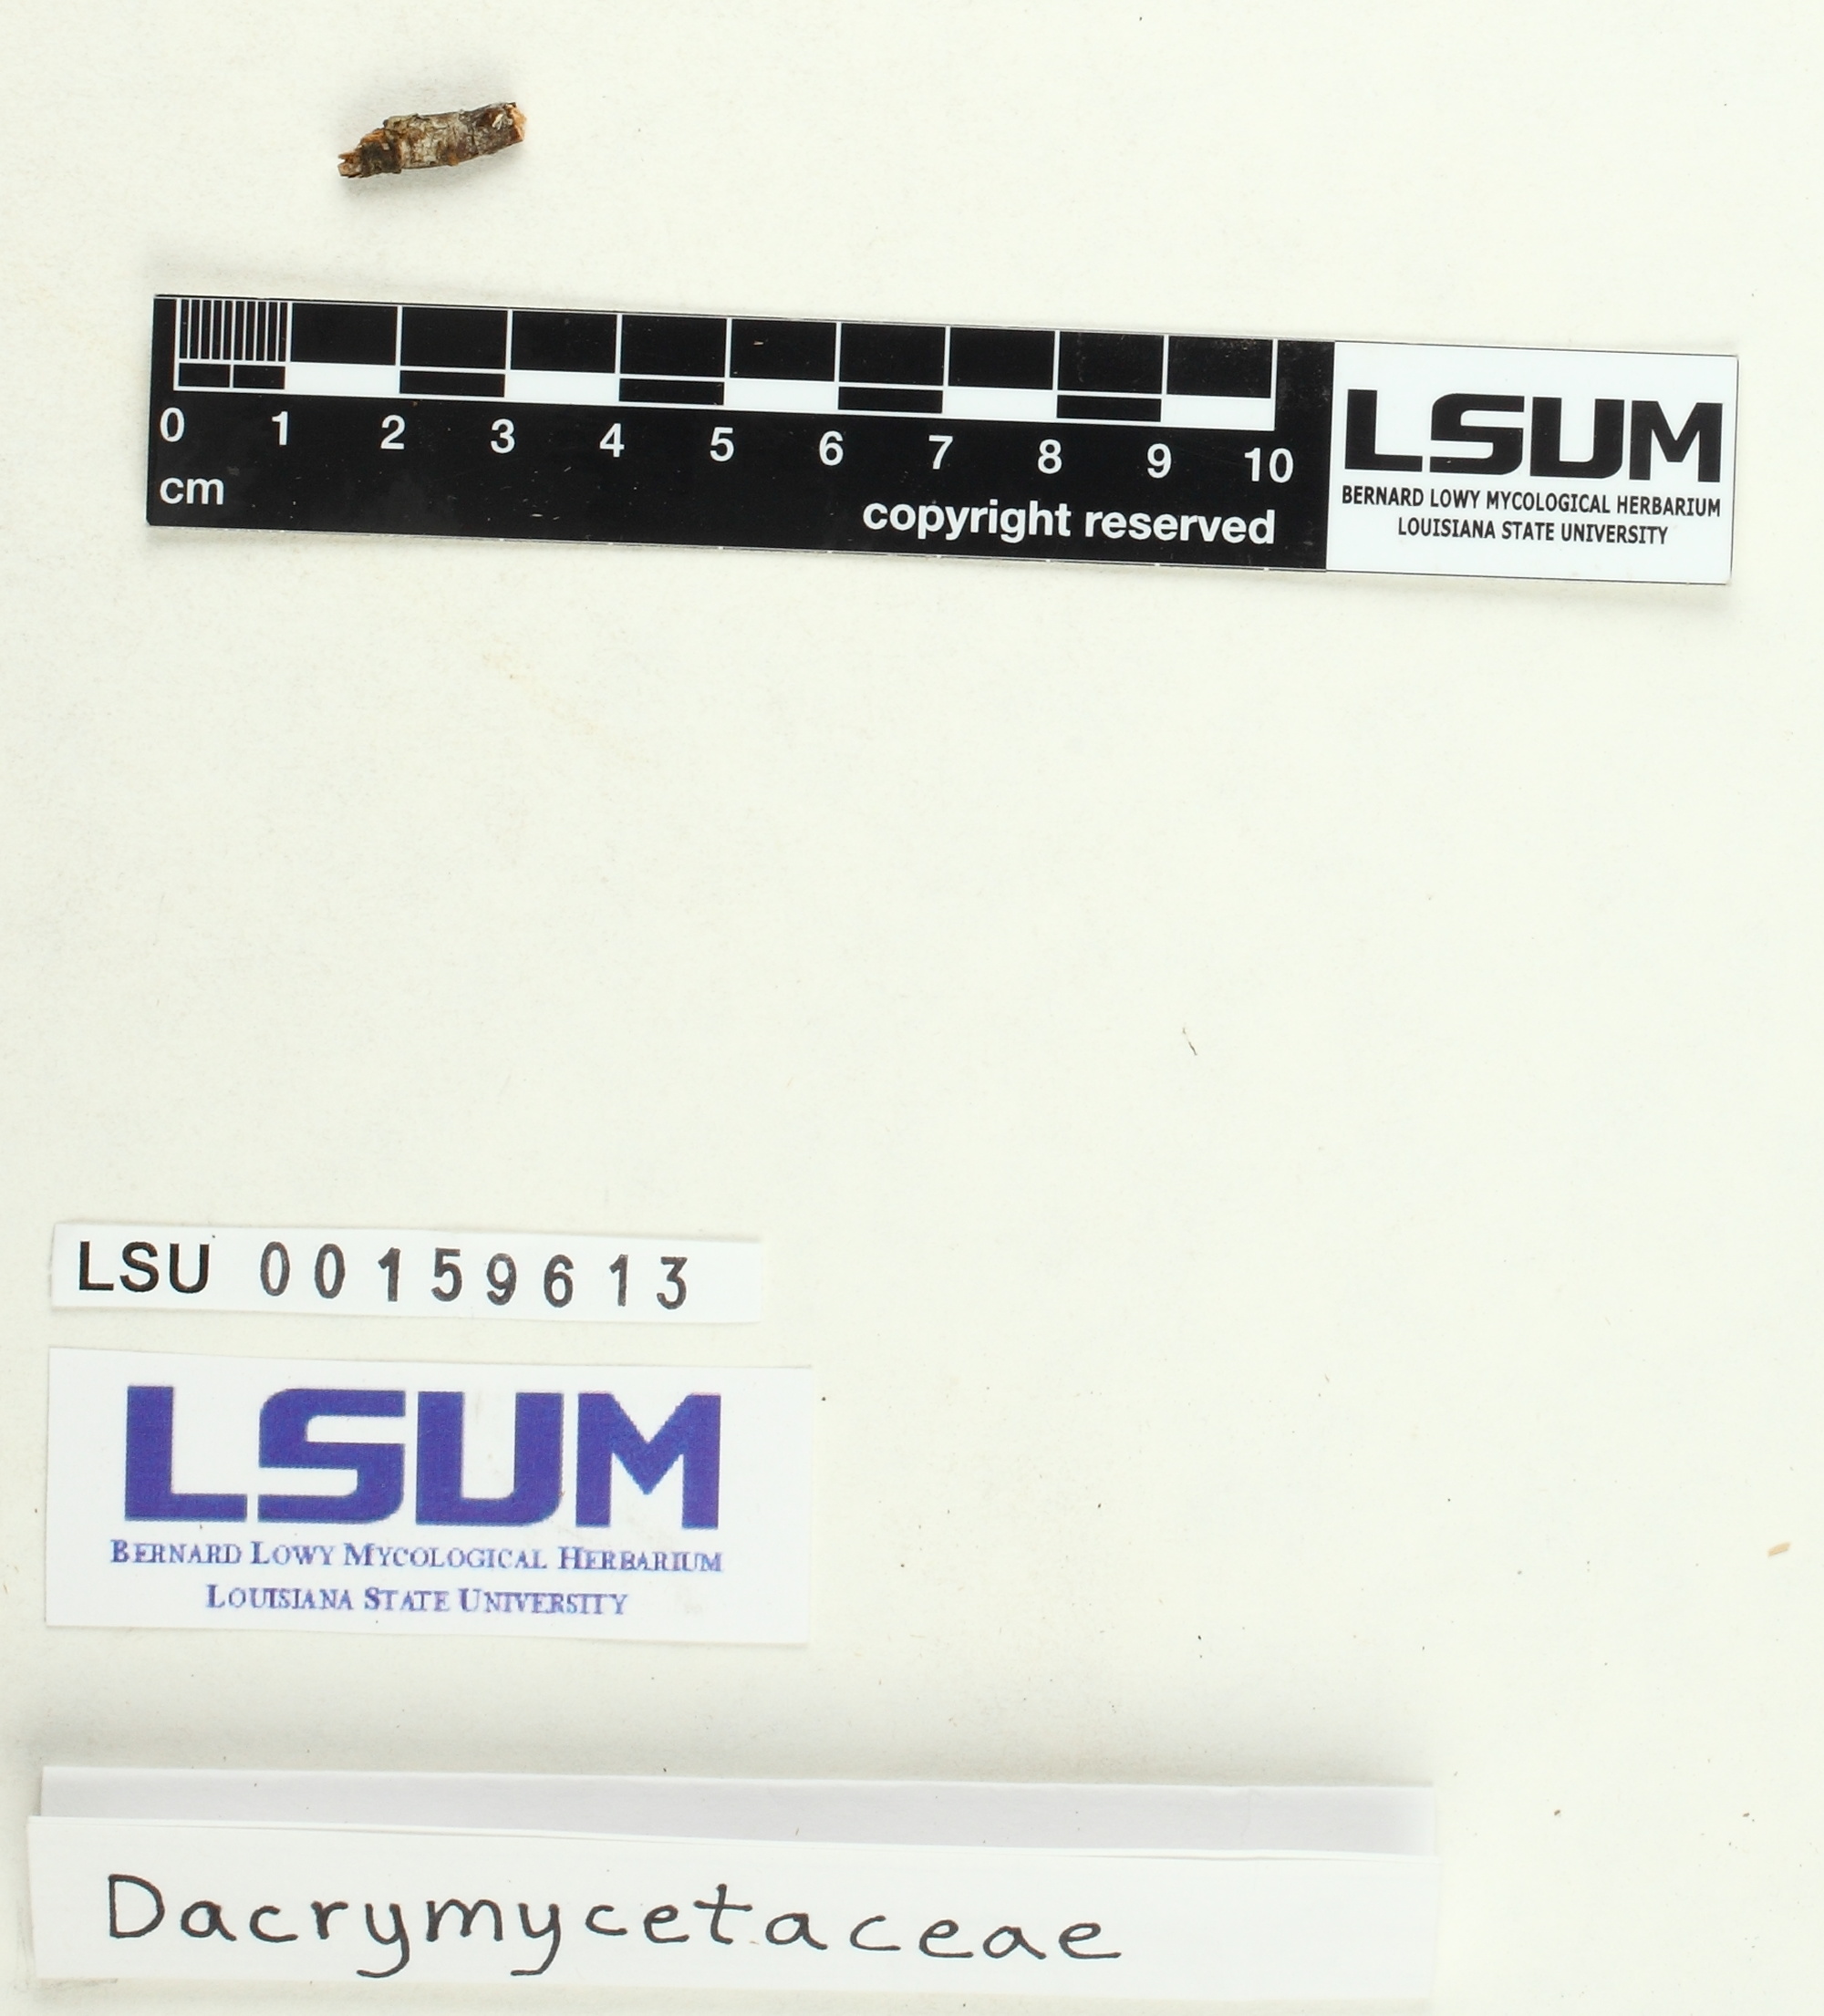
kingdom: Fungi
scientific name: Fungi
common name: Fungi
